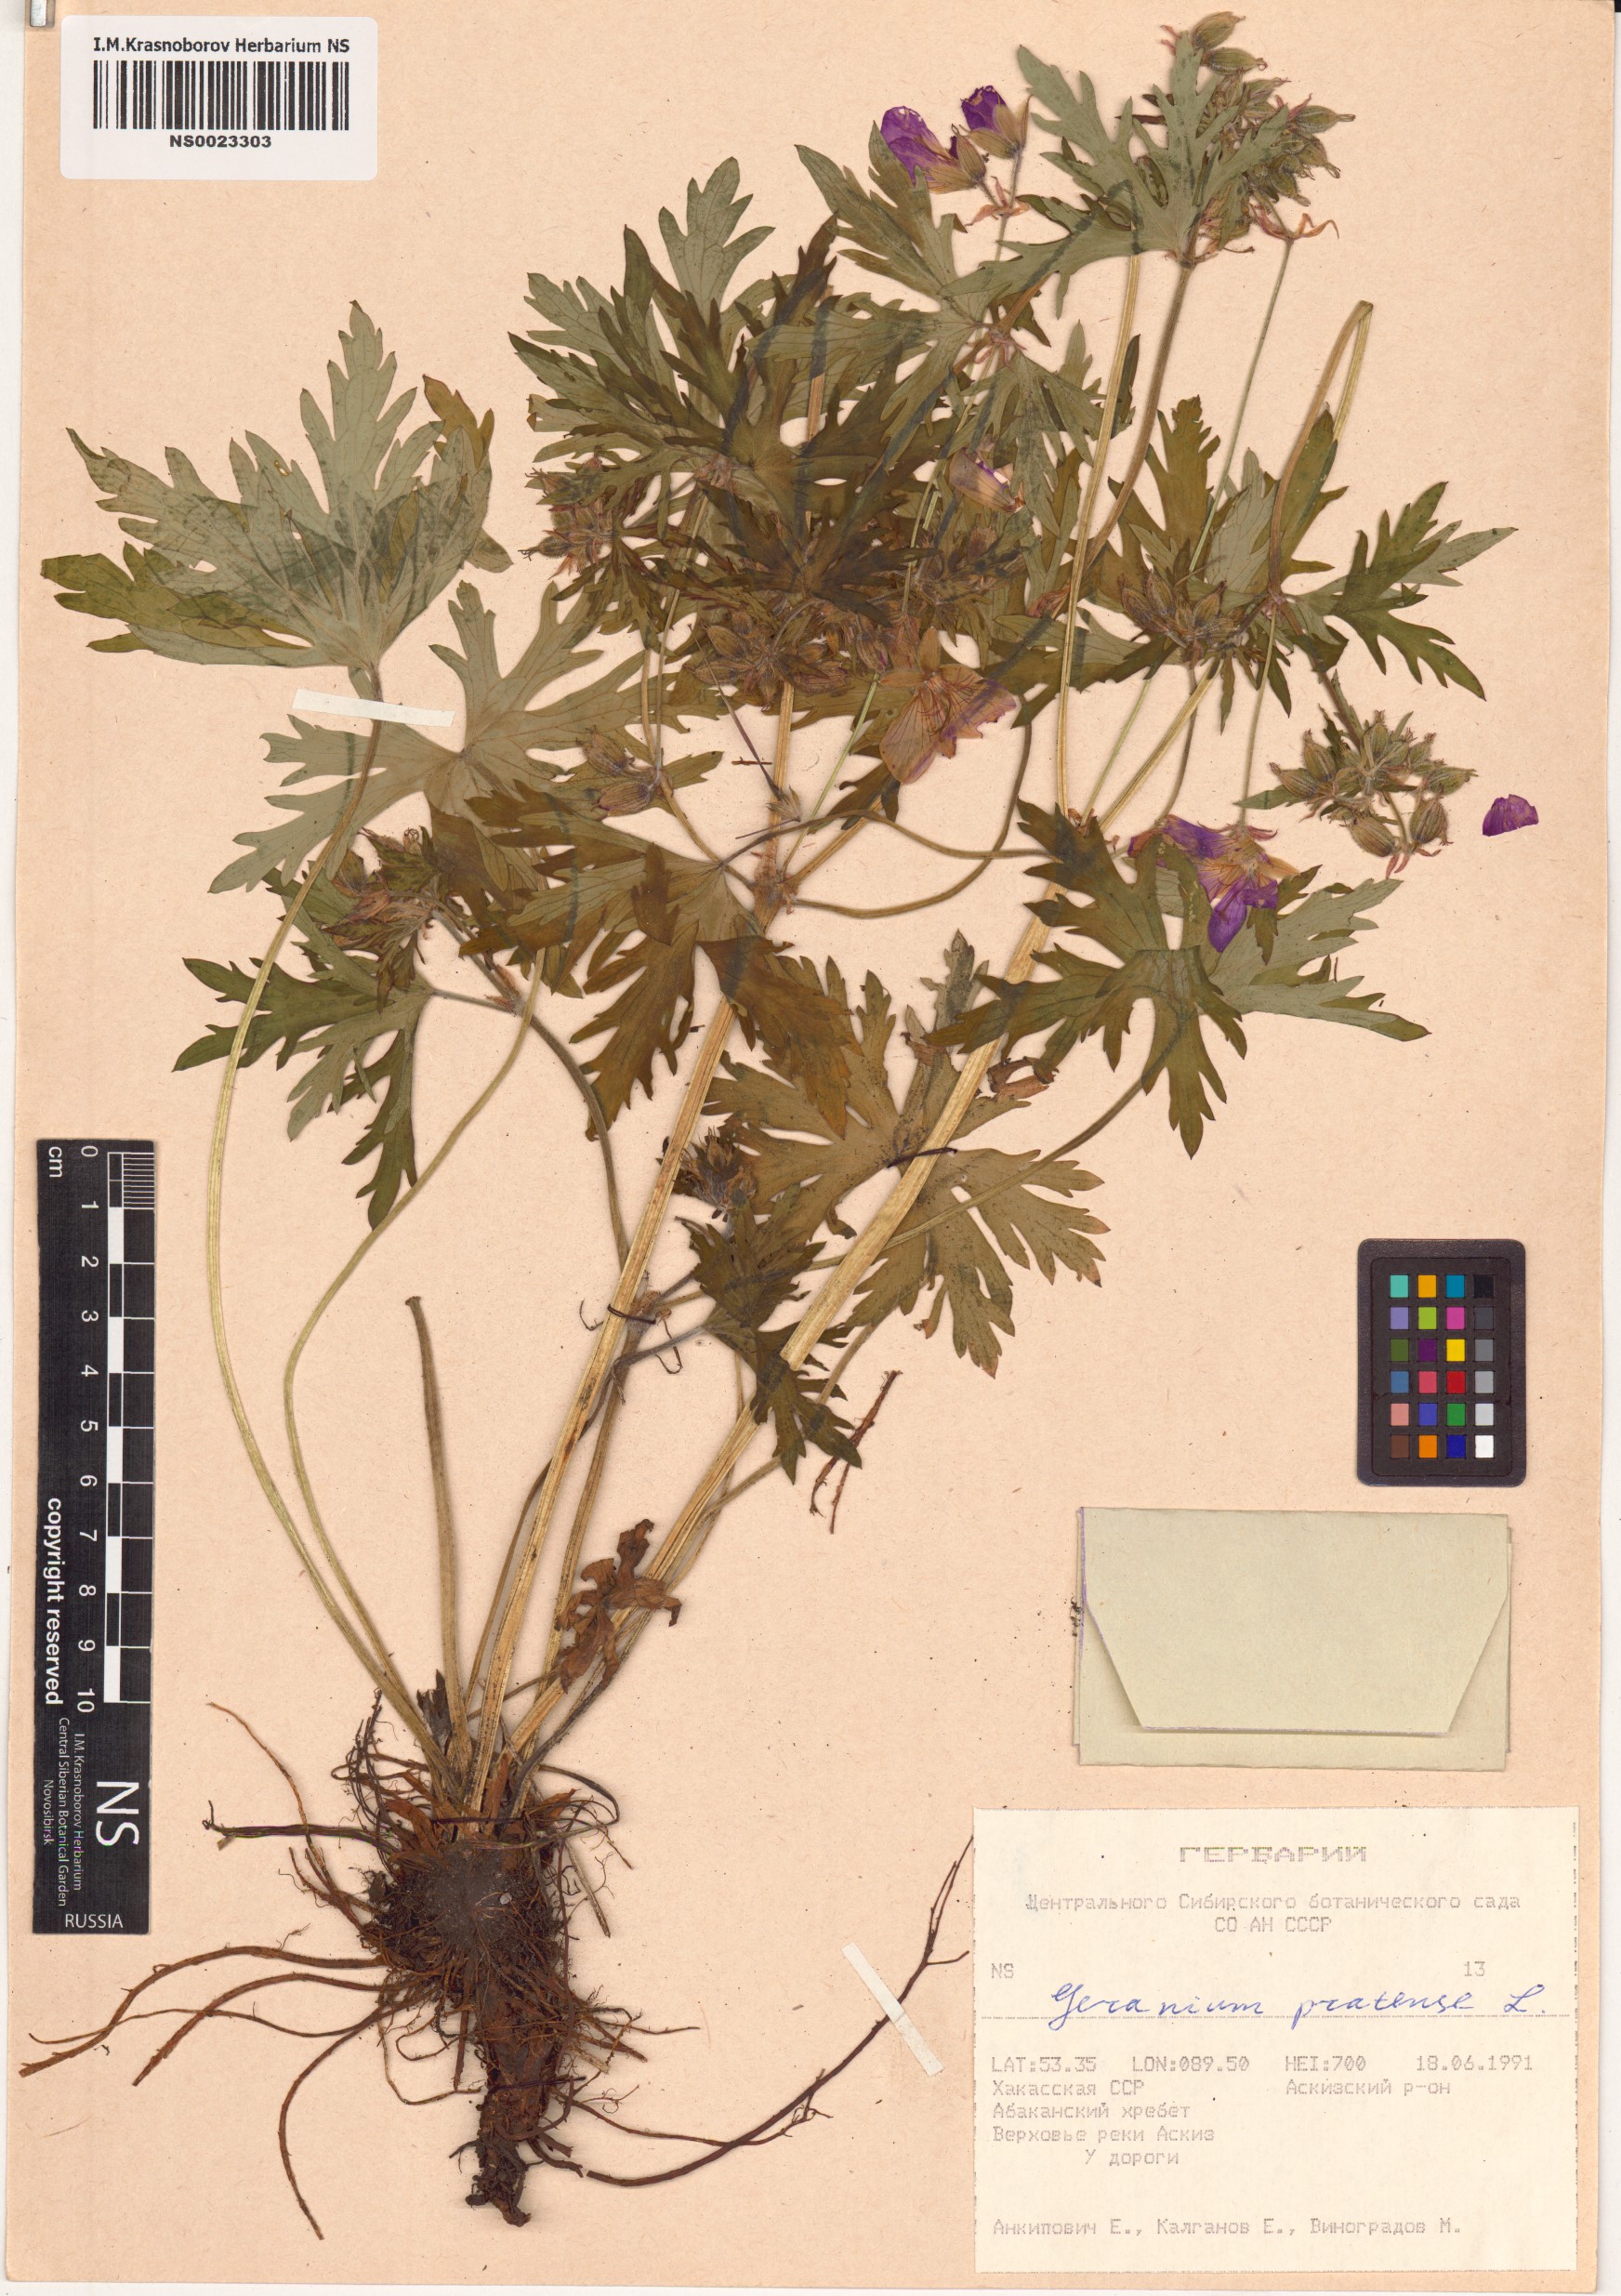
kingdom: Plantae
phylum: Tracheophyta
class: Magnoliopsida
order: Geraniales
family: Geraniaceae
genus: Geranium
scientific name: Geranium pratense
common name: Meadow crane's-bill
